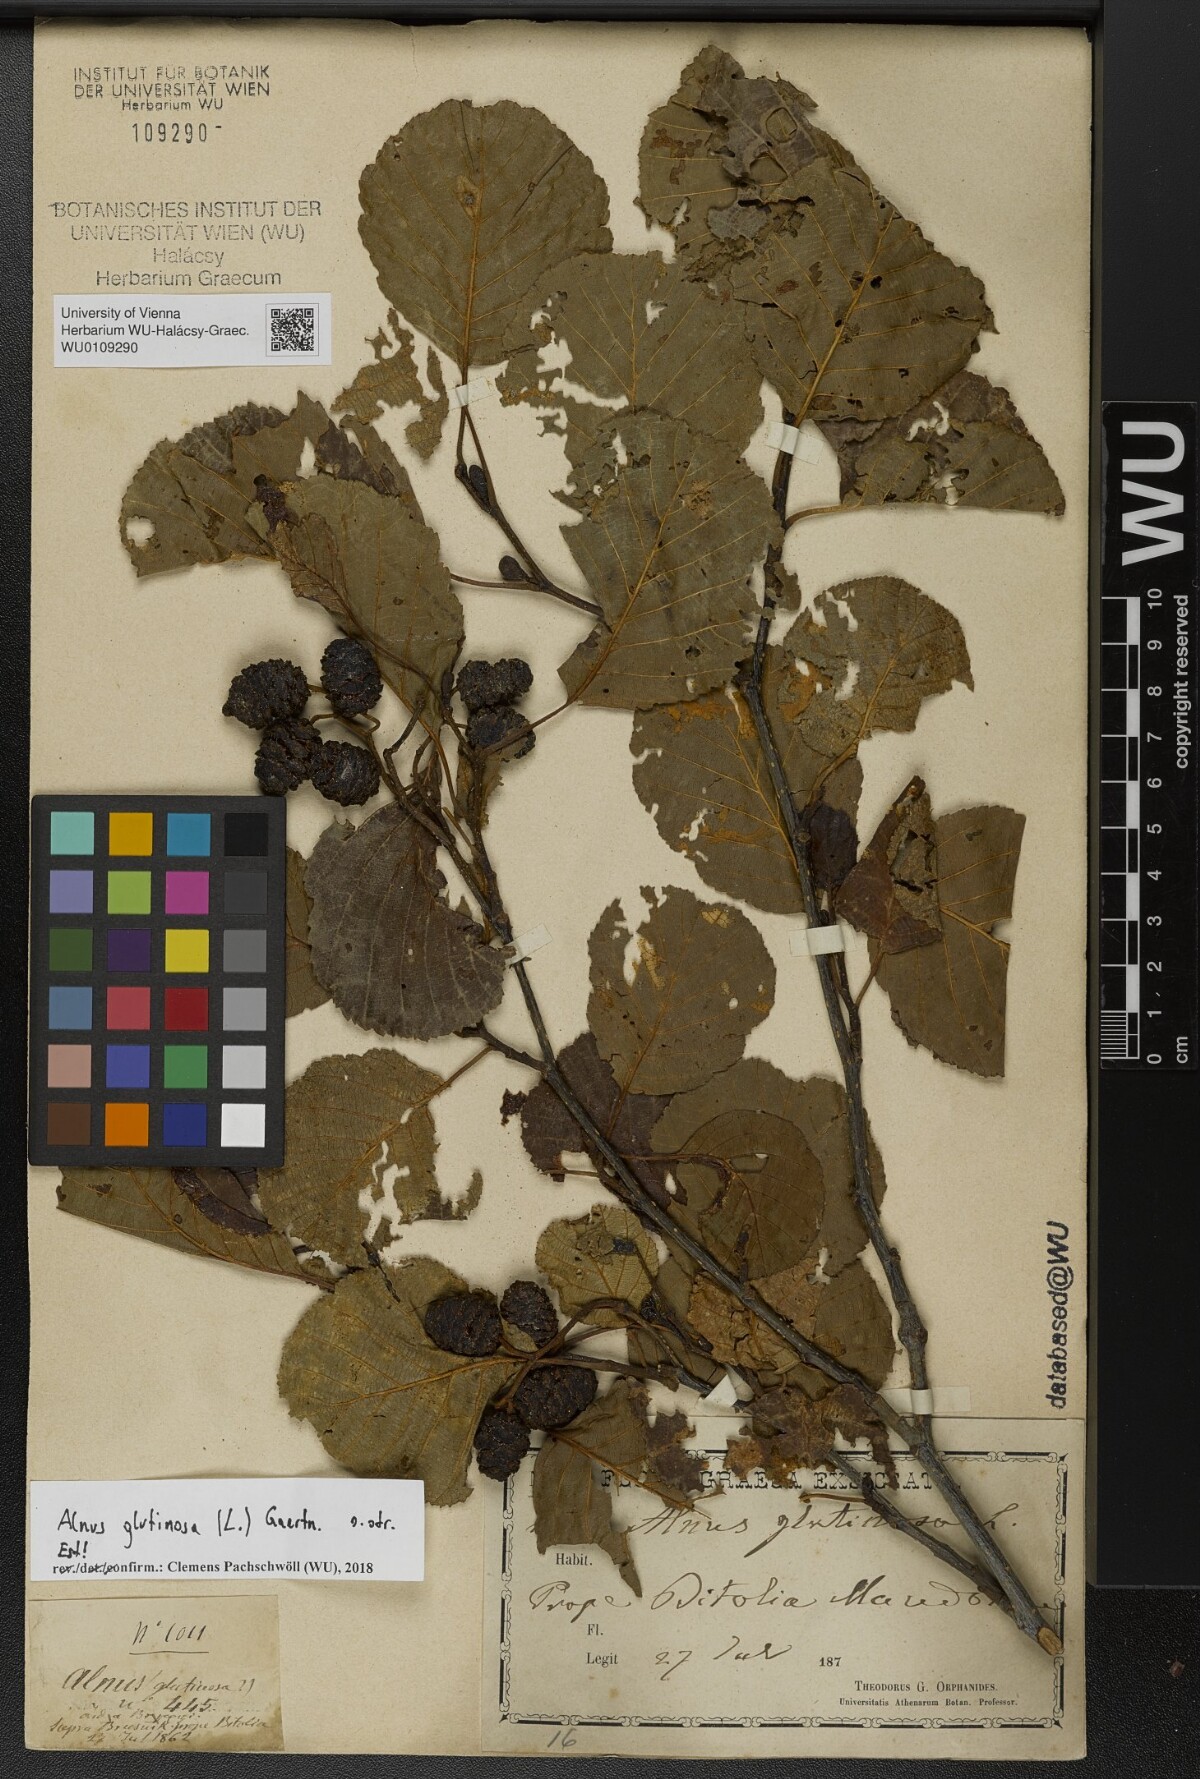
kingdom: Plantae
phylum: Tracheophyta
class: Magnoliopsida
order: Fagales
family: Betulaceae
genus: Alnus
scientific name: Alnus glutinosa
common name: Black alder
